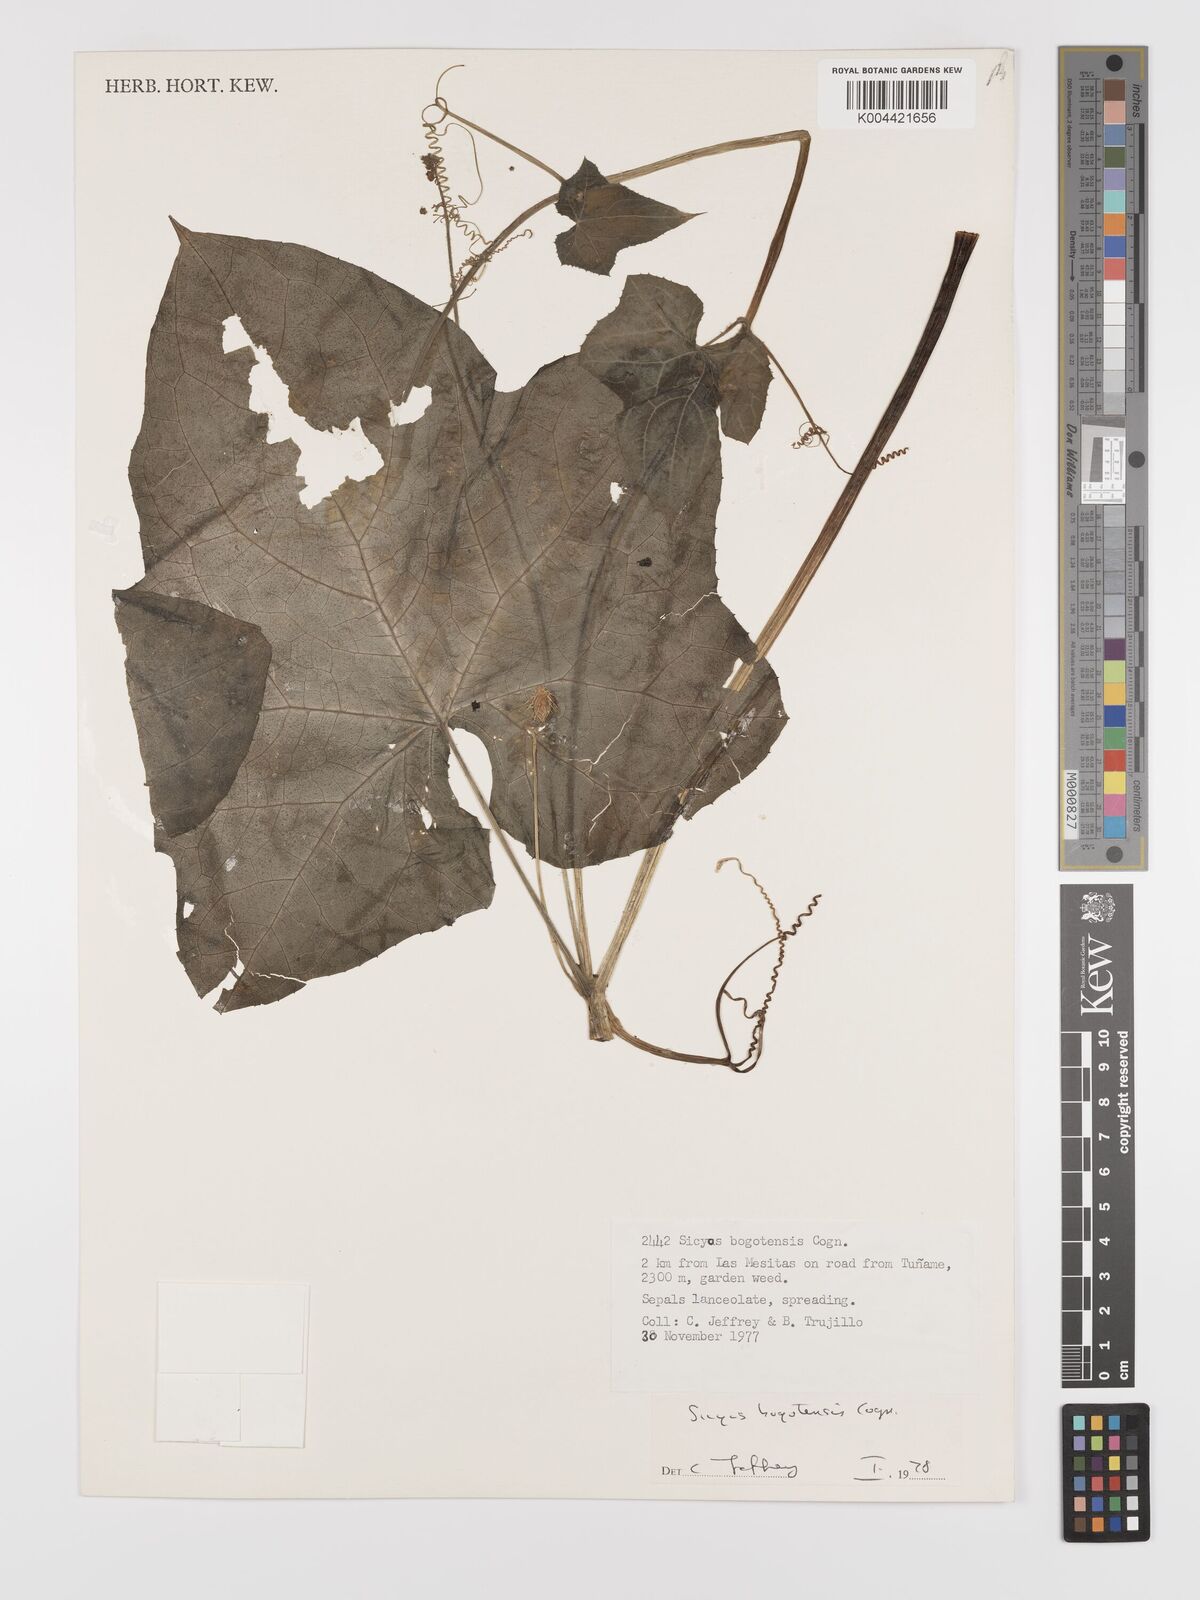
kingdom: Plantae
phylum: Tracheophyta
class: Magnoliopsida
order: Cucurbitales
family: Cucurbitaceae
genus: Sicyos
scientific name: Sicyos bogotensis
